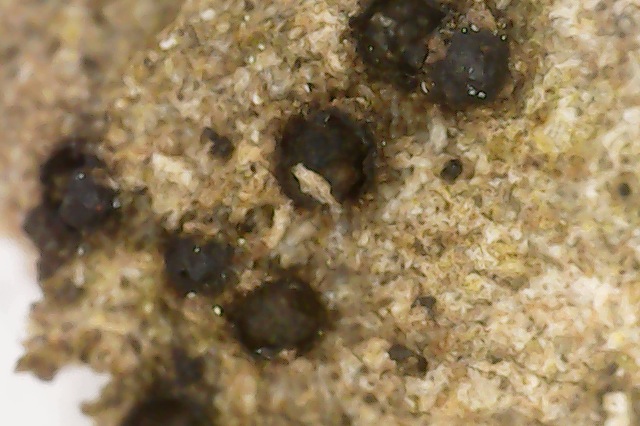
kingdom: Fungi
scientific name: Fungi
